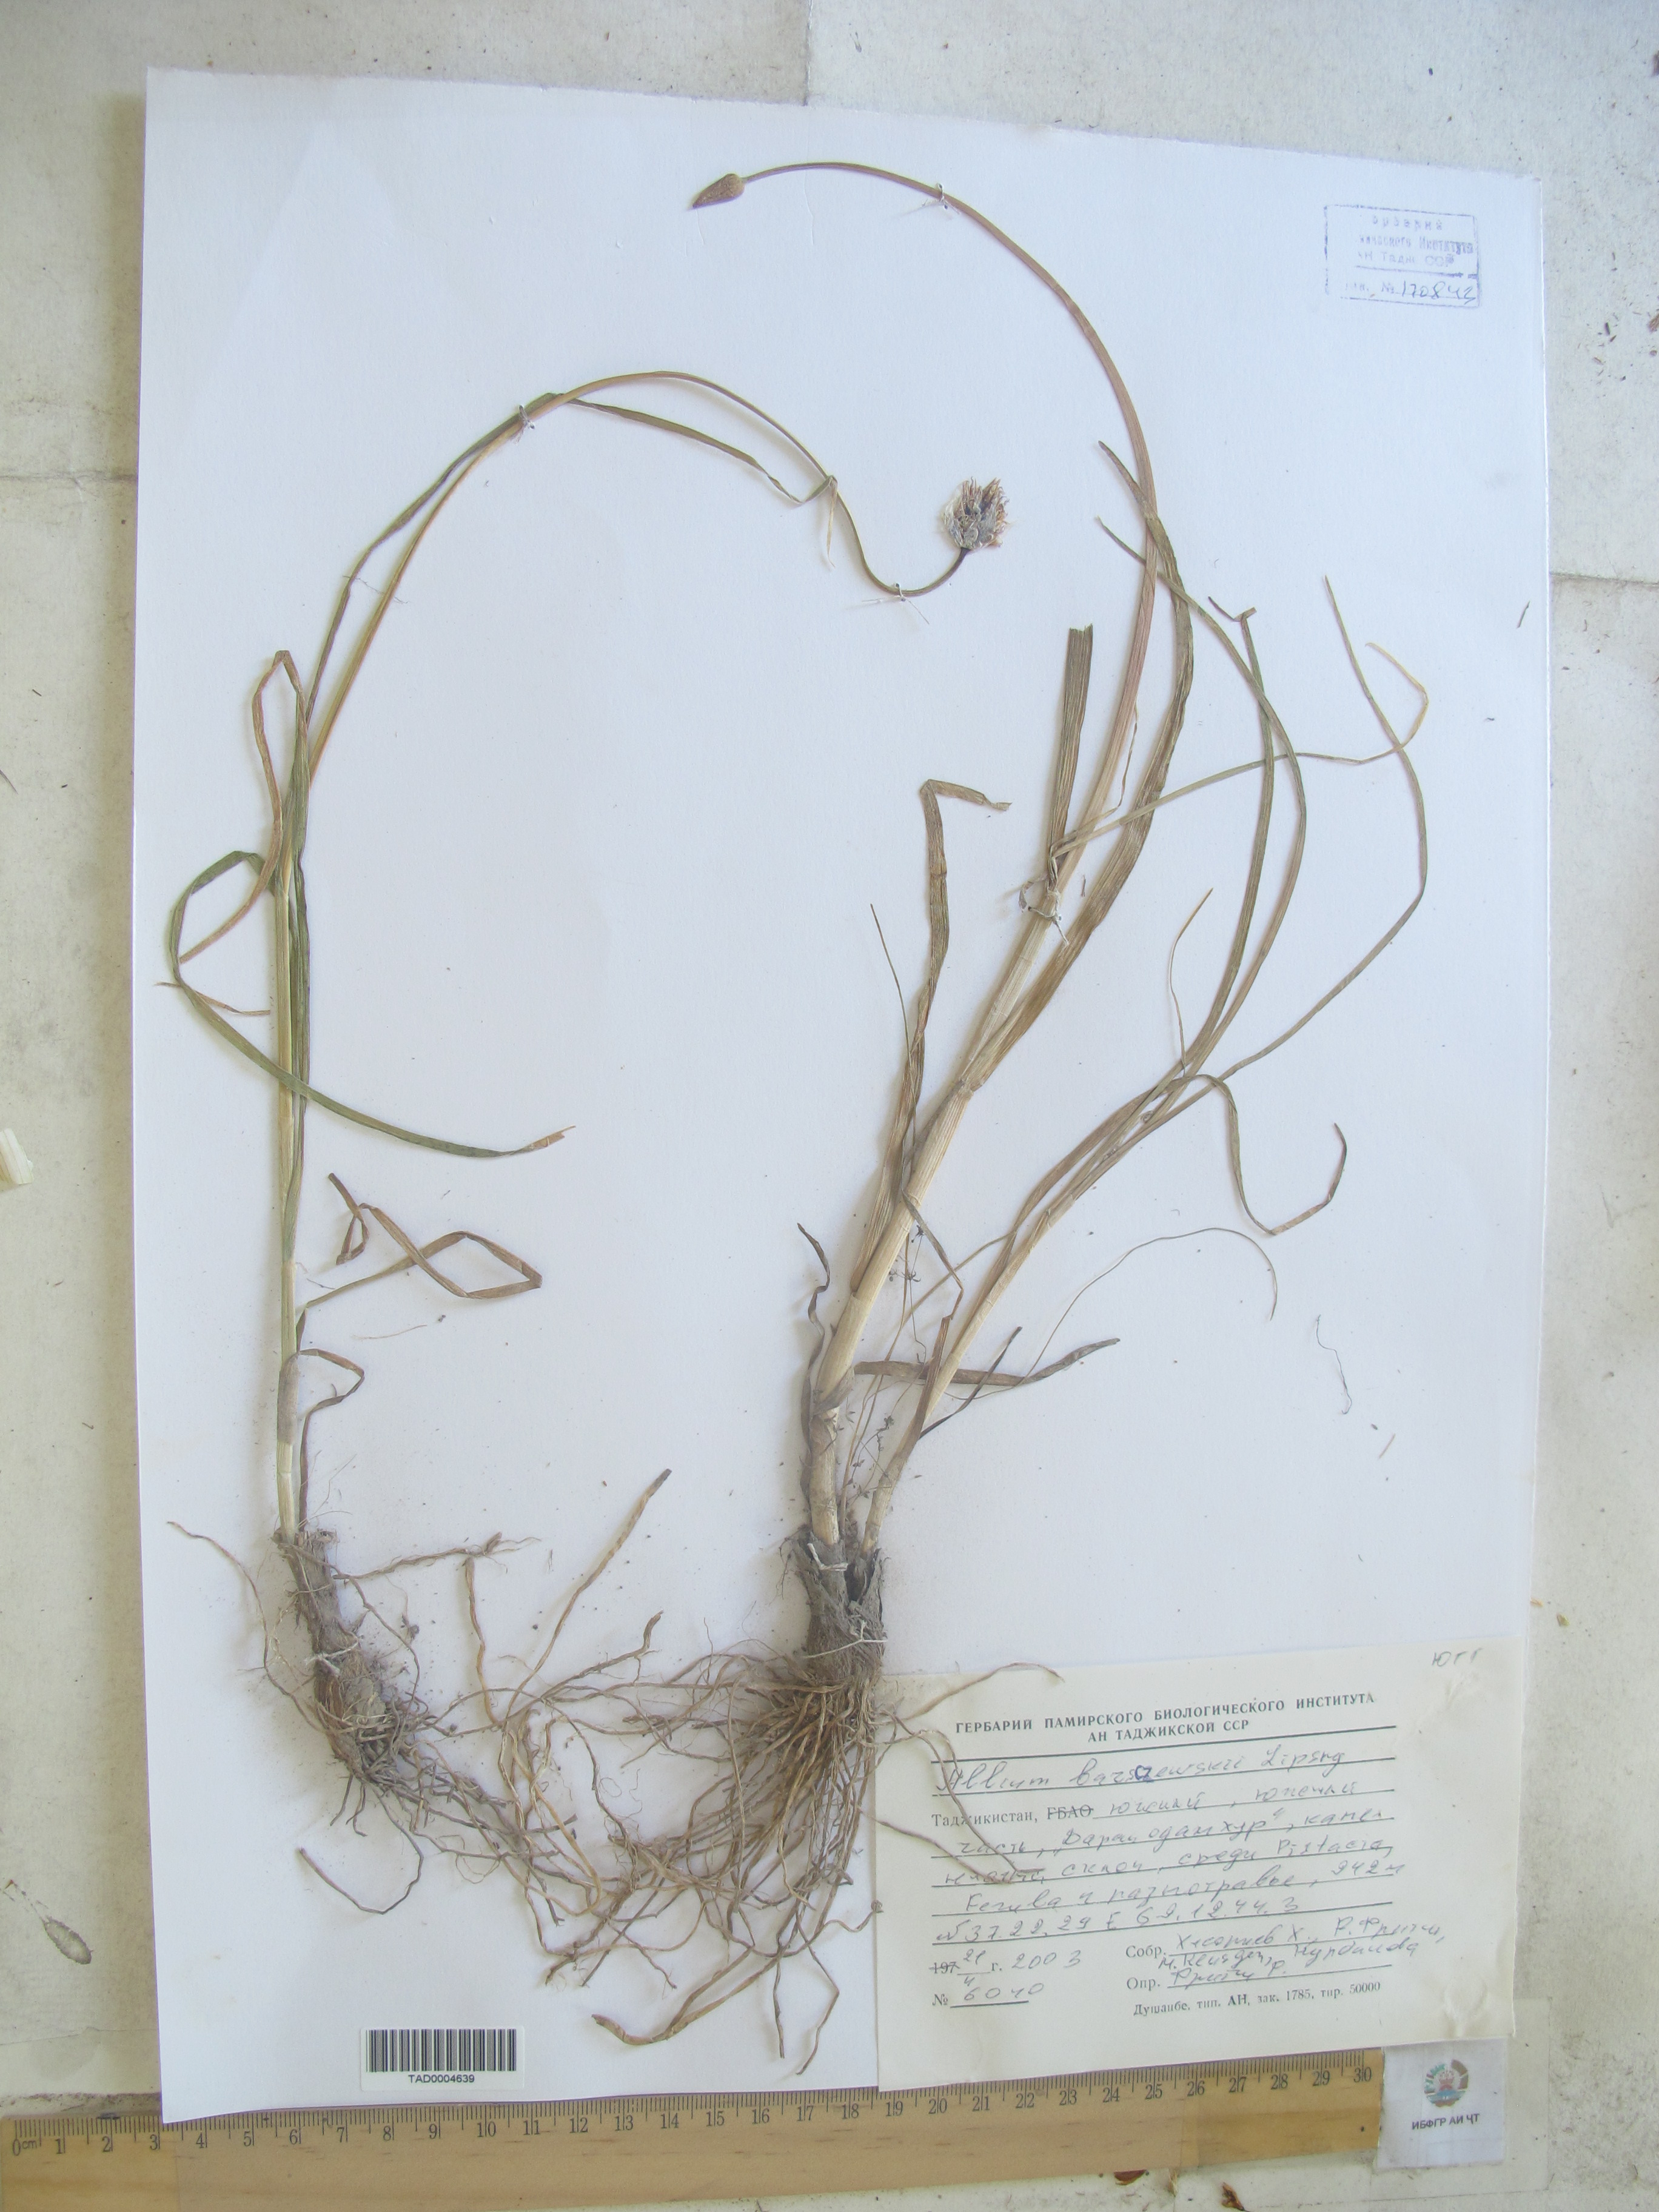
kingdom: Plantae
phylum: Tracheophyta
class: Liliopsida
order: Asparagales
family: Amaryllidaceae
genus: Allium
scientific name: Allium barsczewskii
